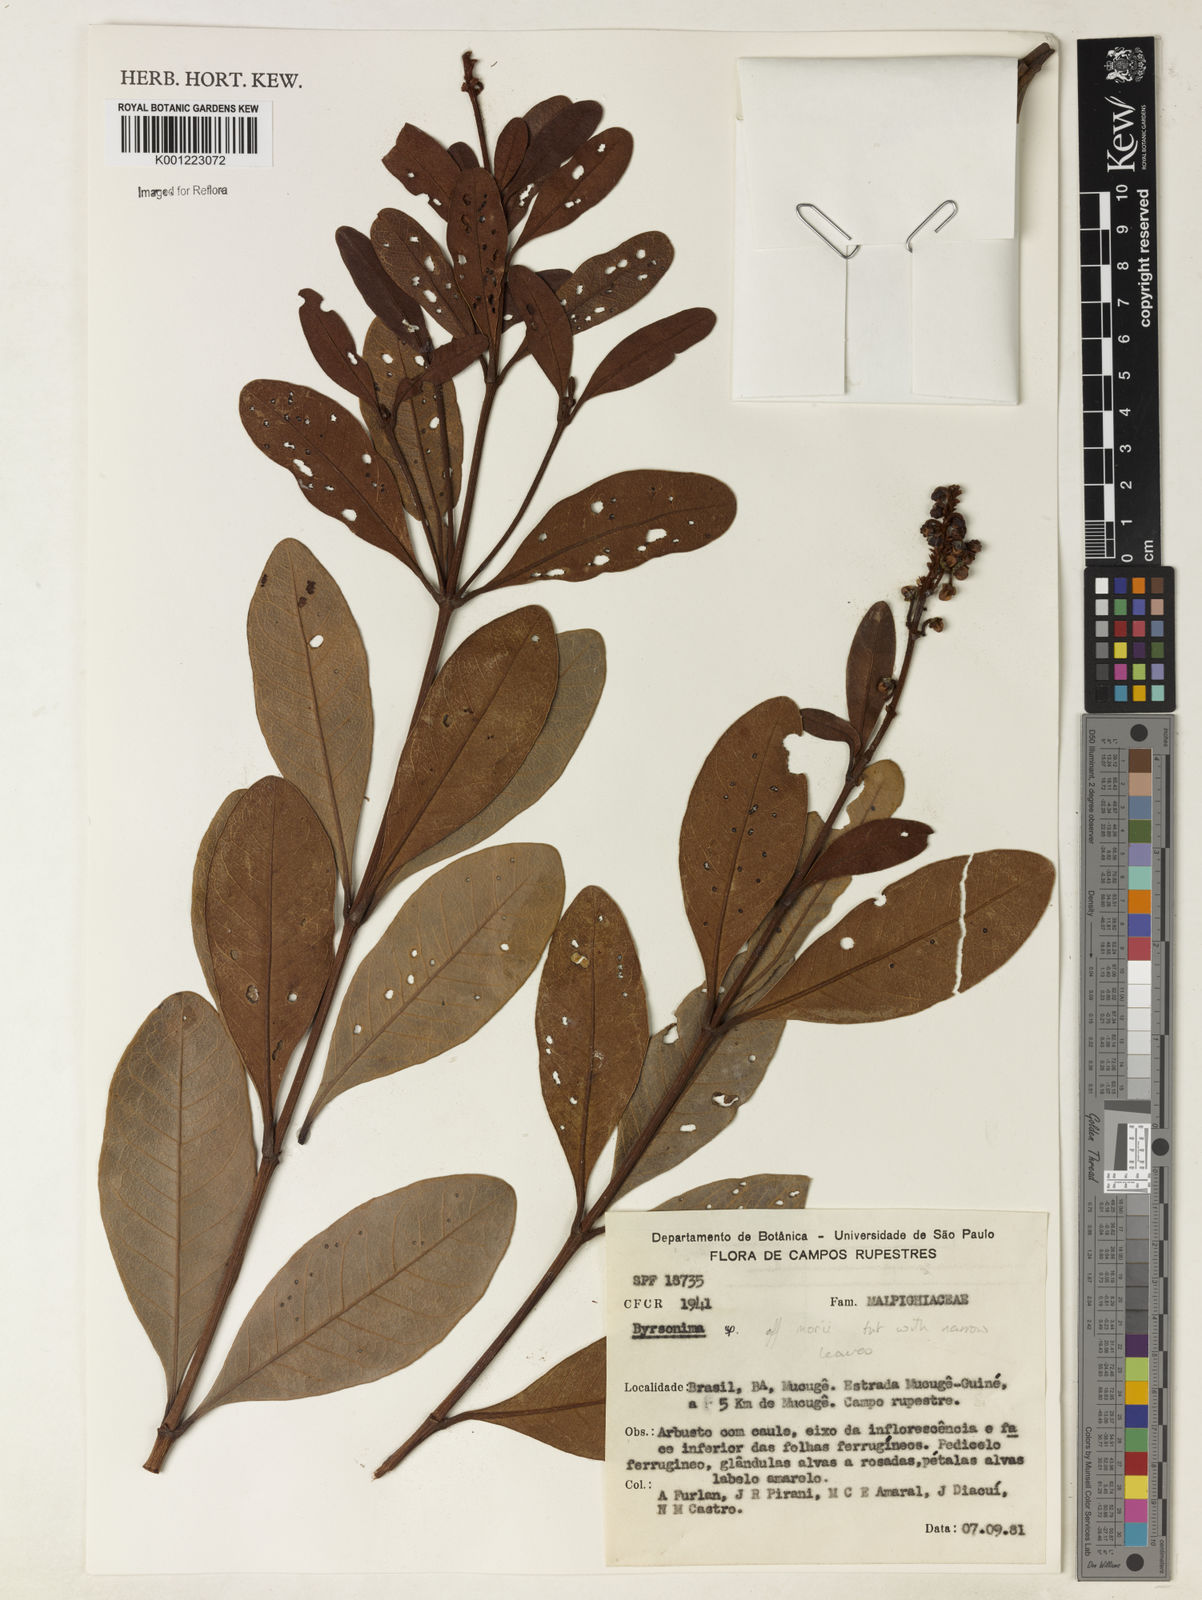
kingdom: Plantae
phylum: Tracheophyta
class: Magnoliopsida
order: Malpighiales
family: Malpighiaceae
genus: Byrsonima
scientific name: Byrsonima morii
